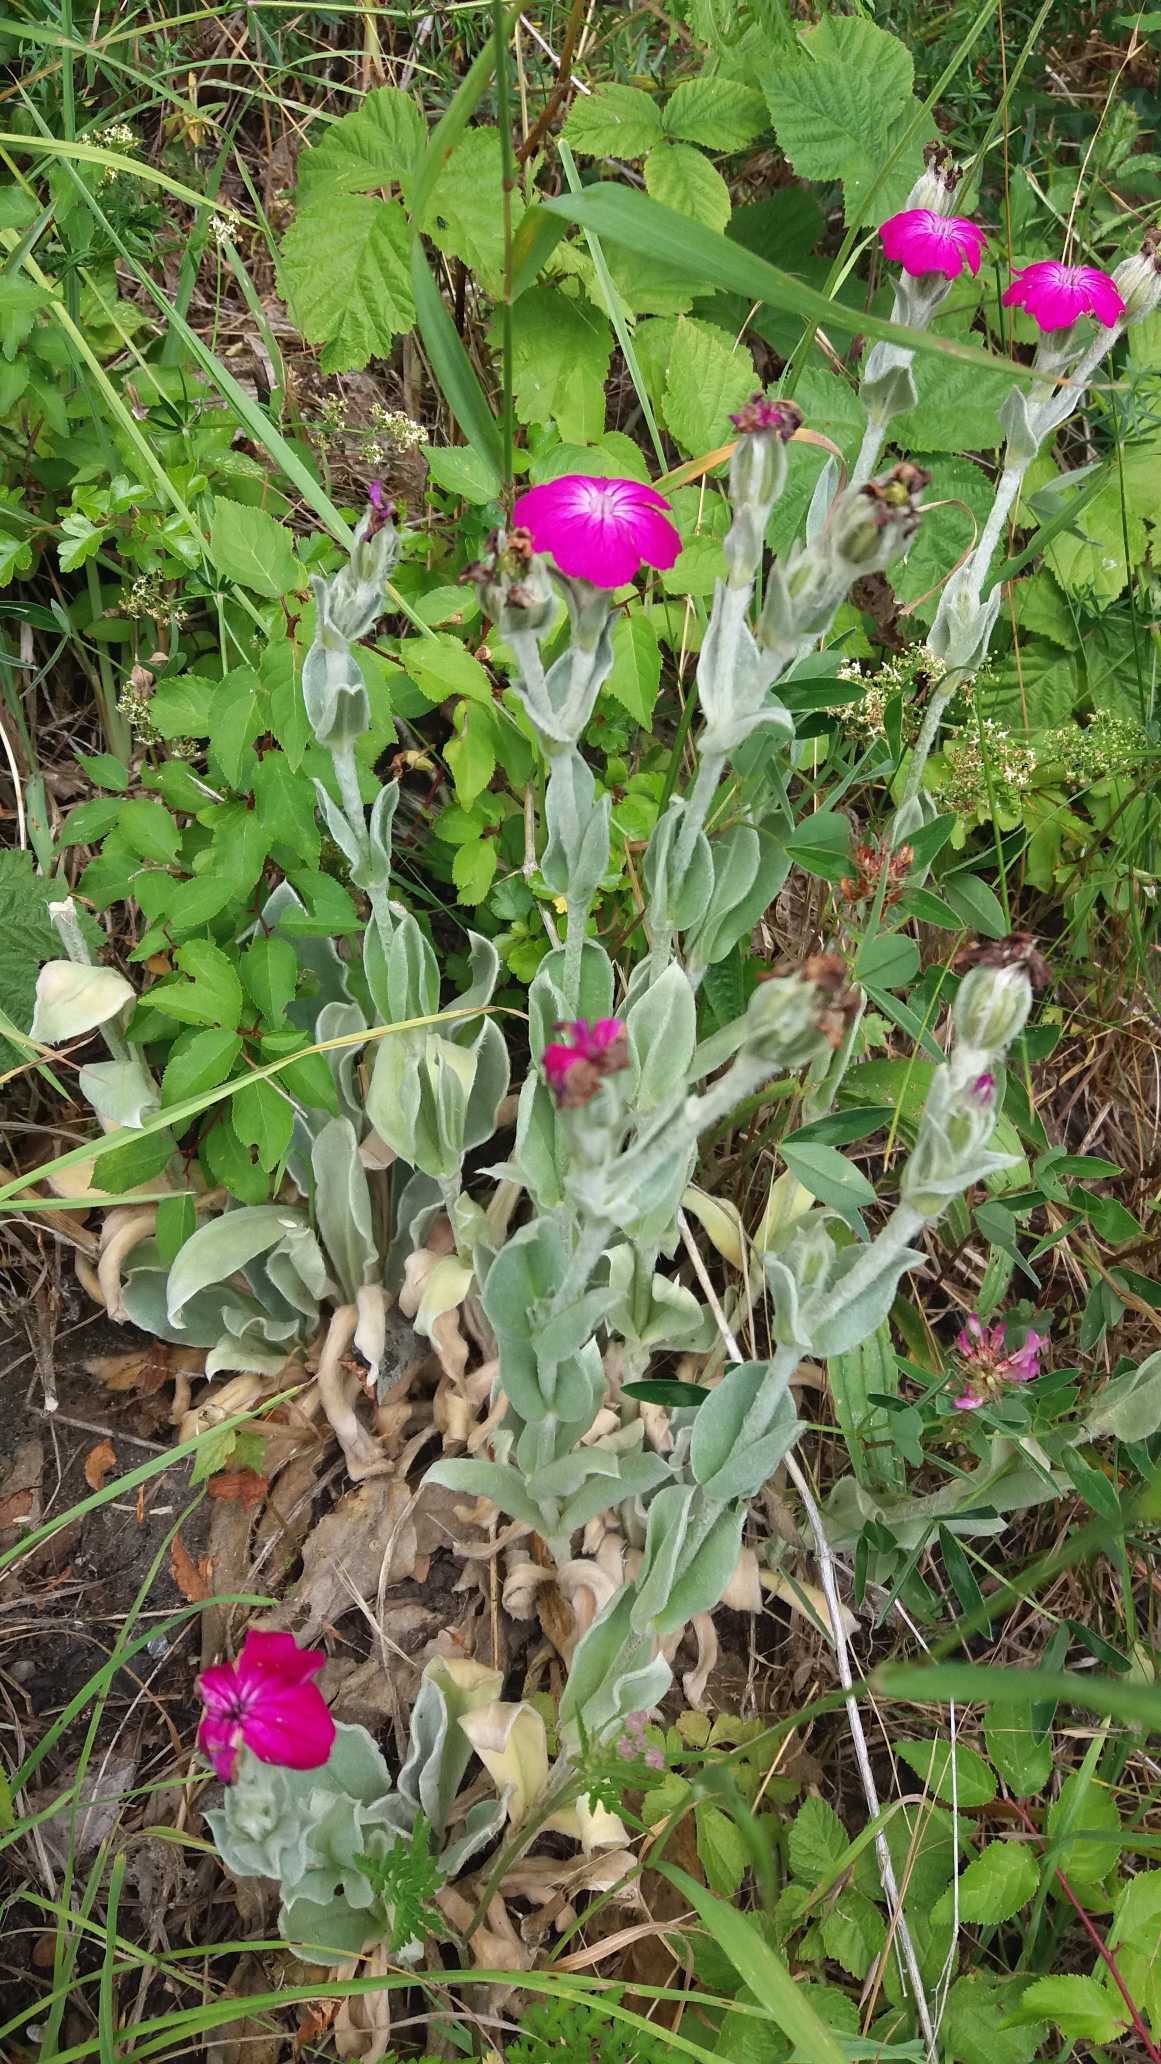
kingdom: Plantae
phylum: Tracheophyta
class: Magnoliopsida
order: Caryophyllales
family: Caryophyllaceae
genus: Silene
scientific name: Silene coronaria
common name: Fiksernellike
